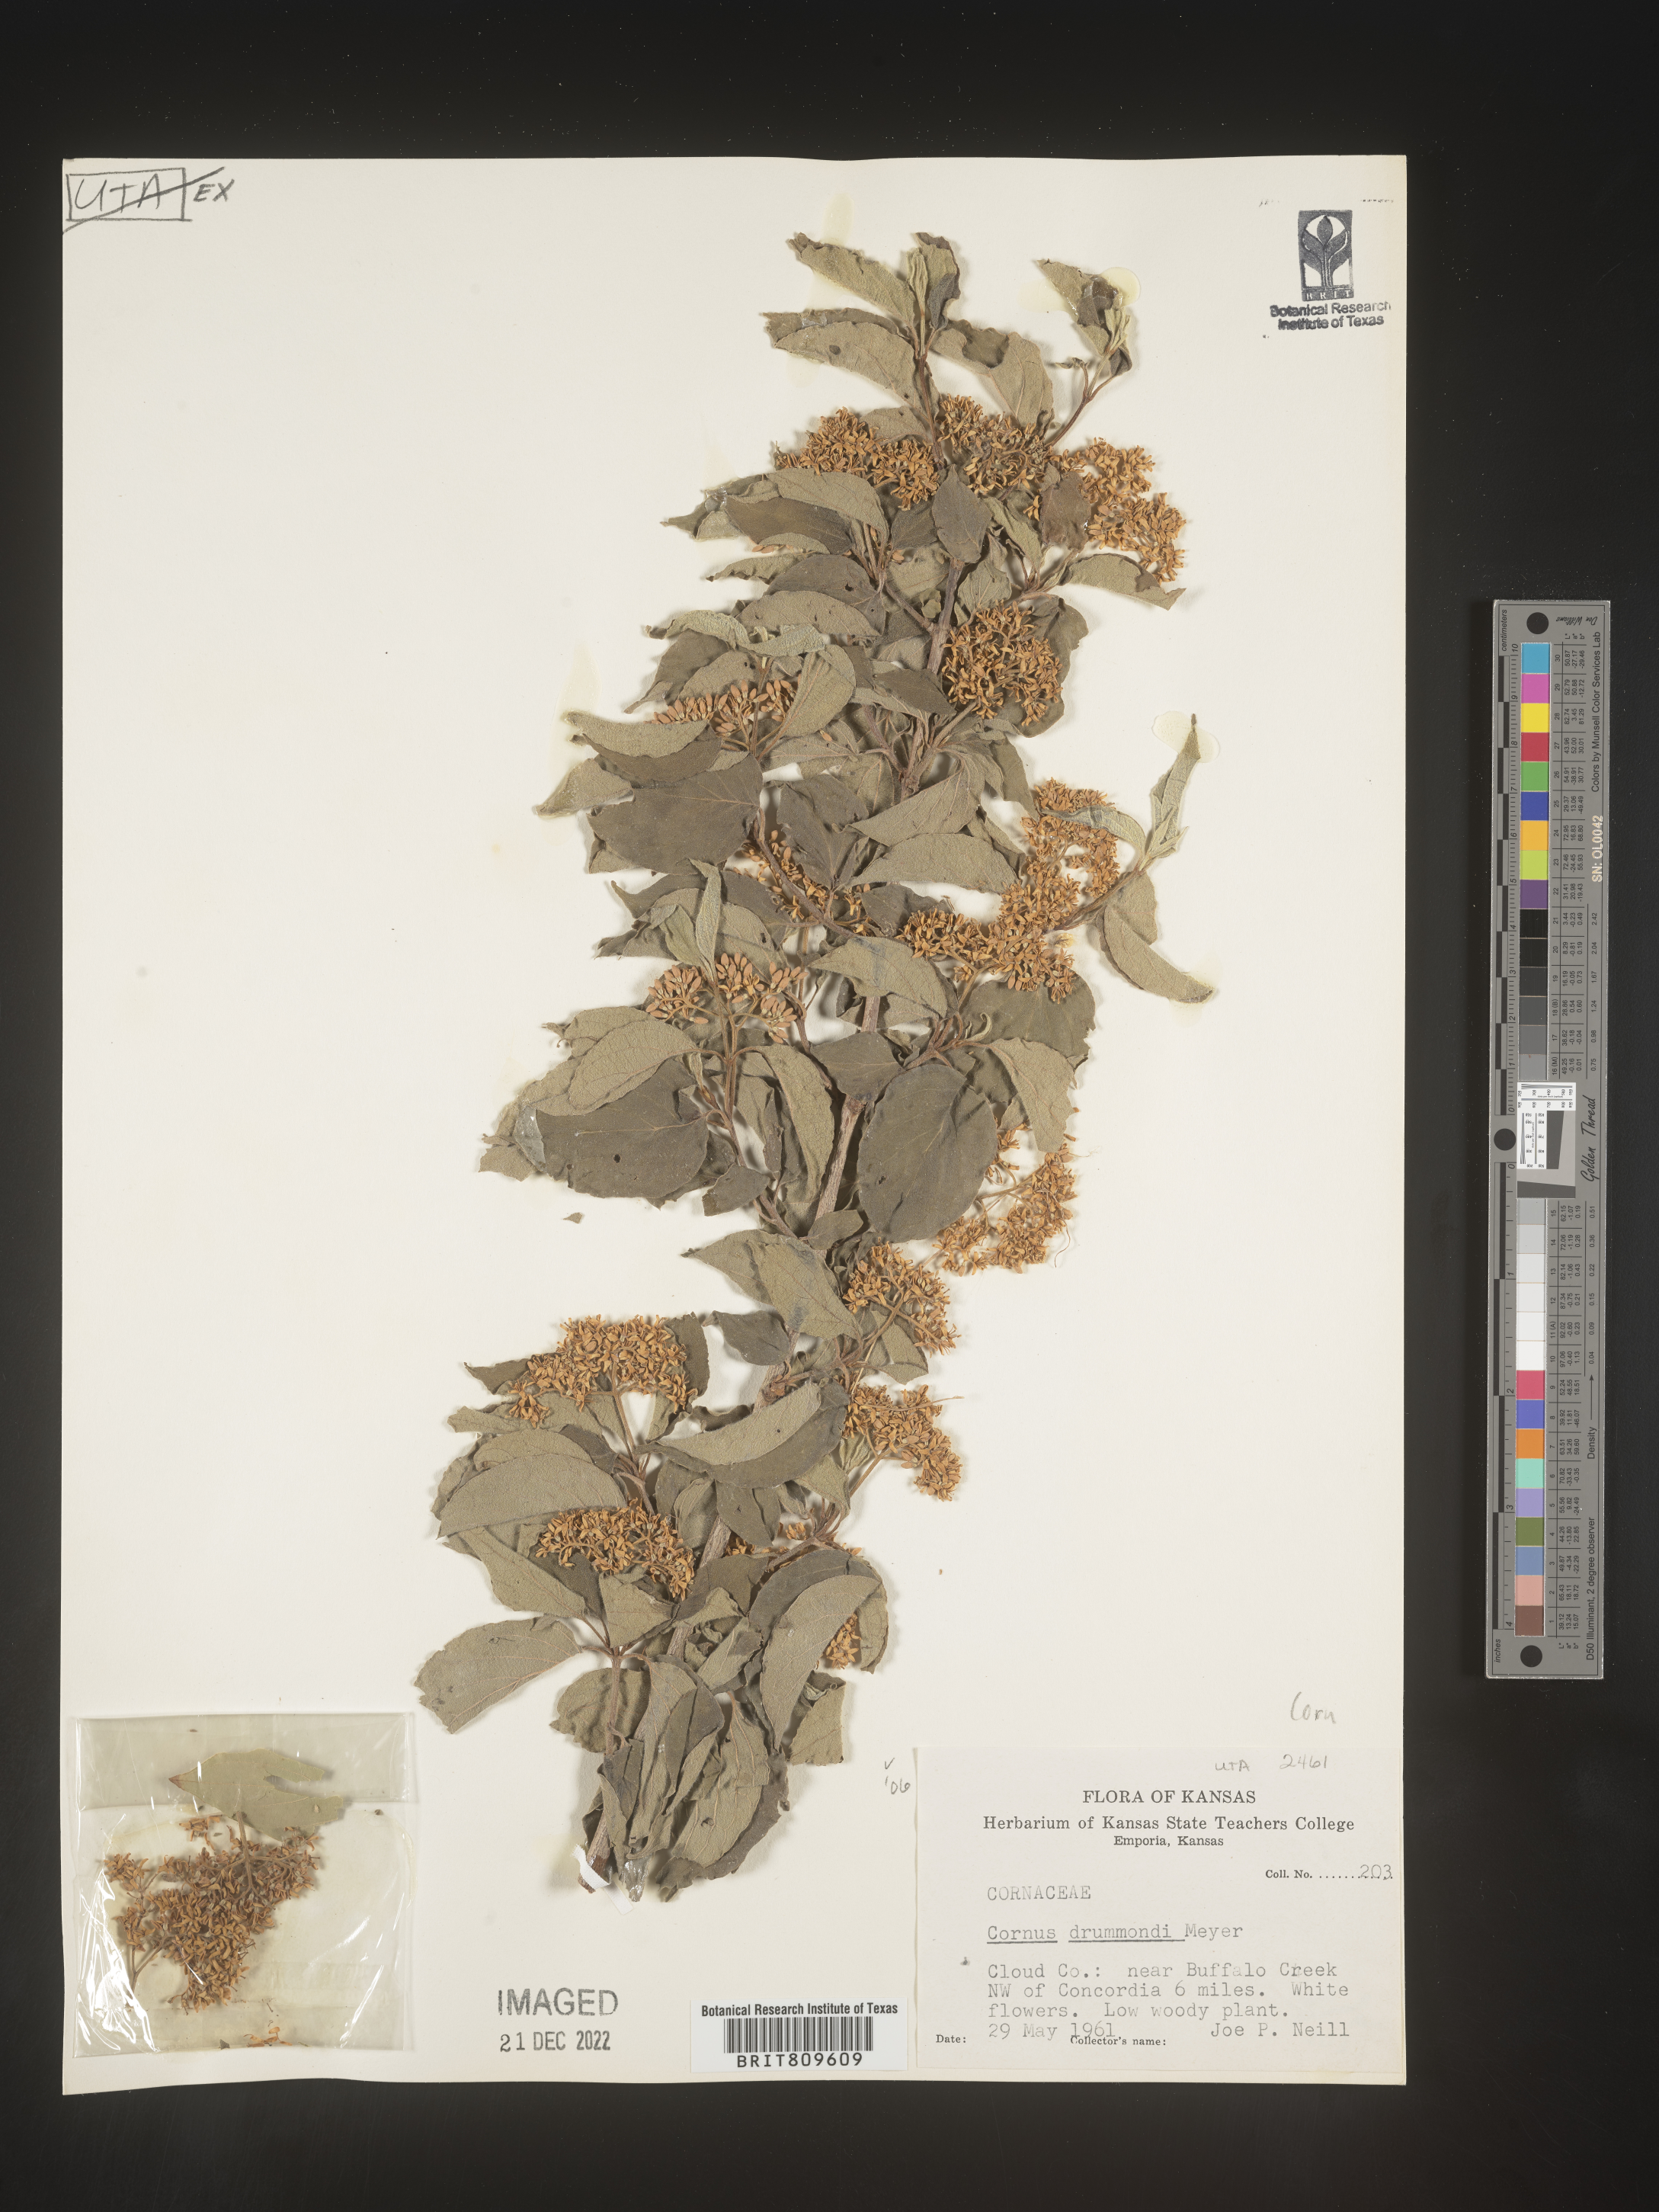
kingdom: Plantae
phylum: Tracheophyta
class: Magnoliopsida
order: Cornales
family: Cornaceae
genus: Cornus
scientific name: Cornus drummondii
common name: Rough-leaf dogwood
